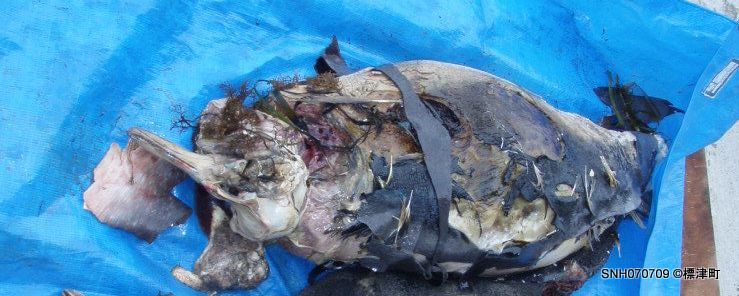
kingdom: Animalia
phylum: Chordata
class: Mammalia
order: Cetacea
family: Phocoenidae
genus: Phocoena
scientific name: Phocoena phocoena
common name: Harbour porpoise
